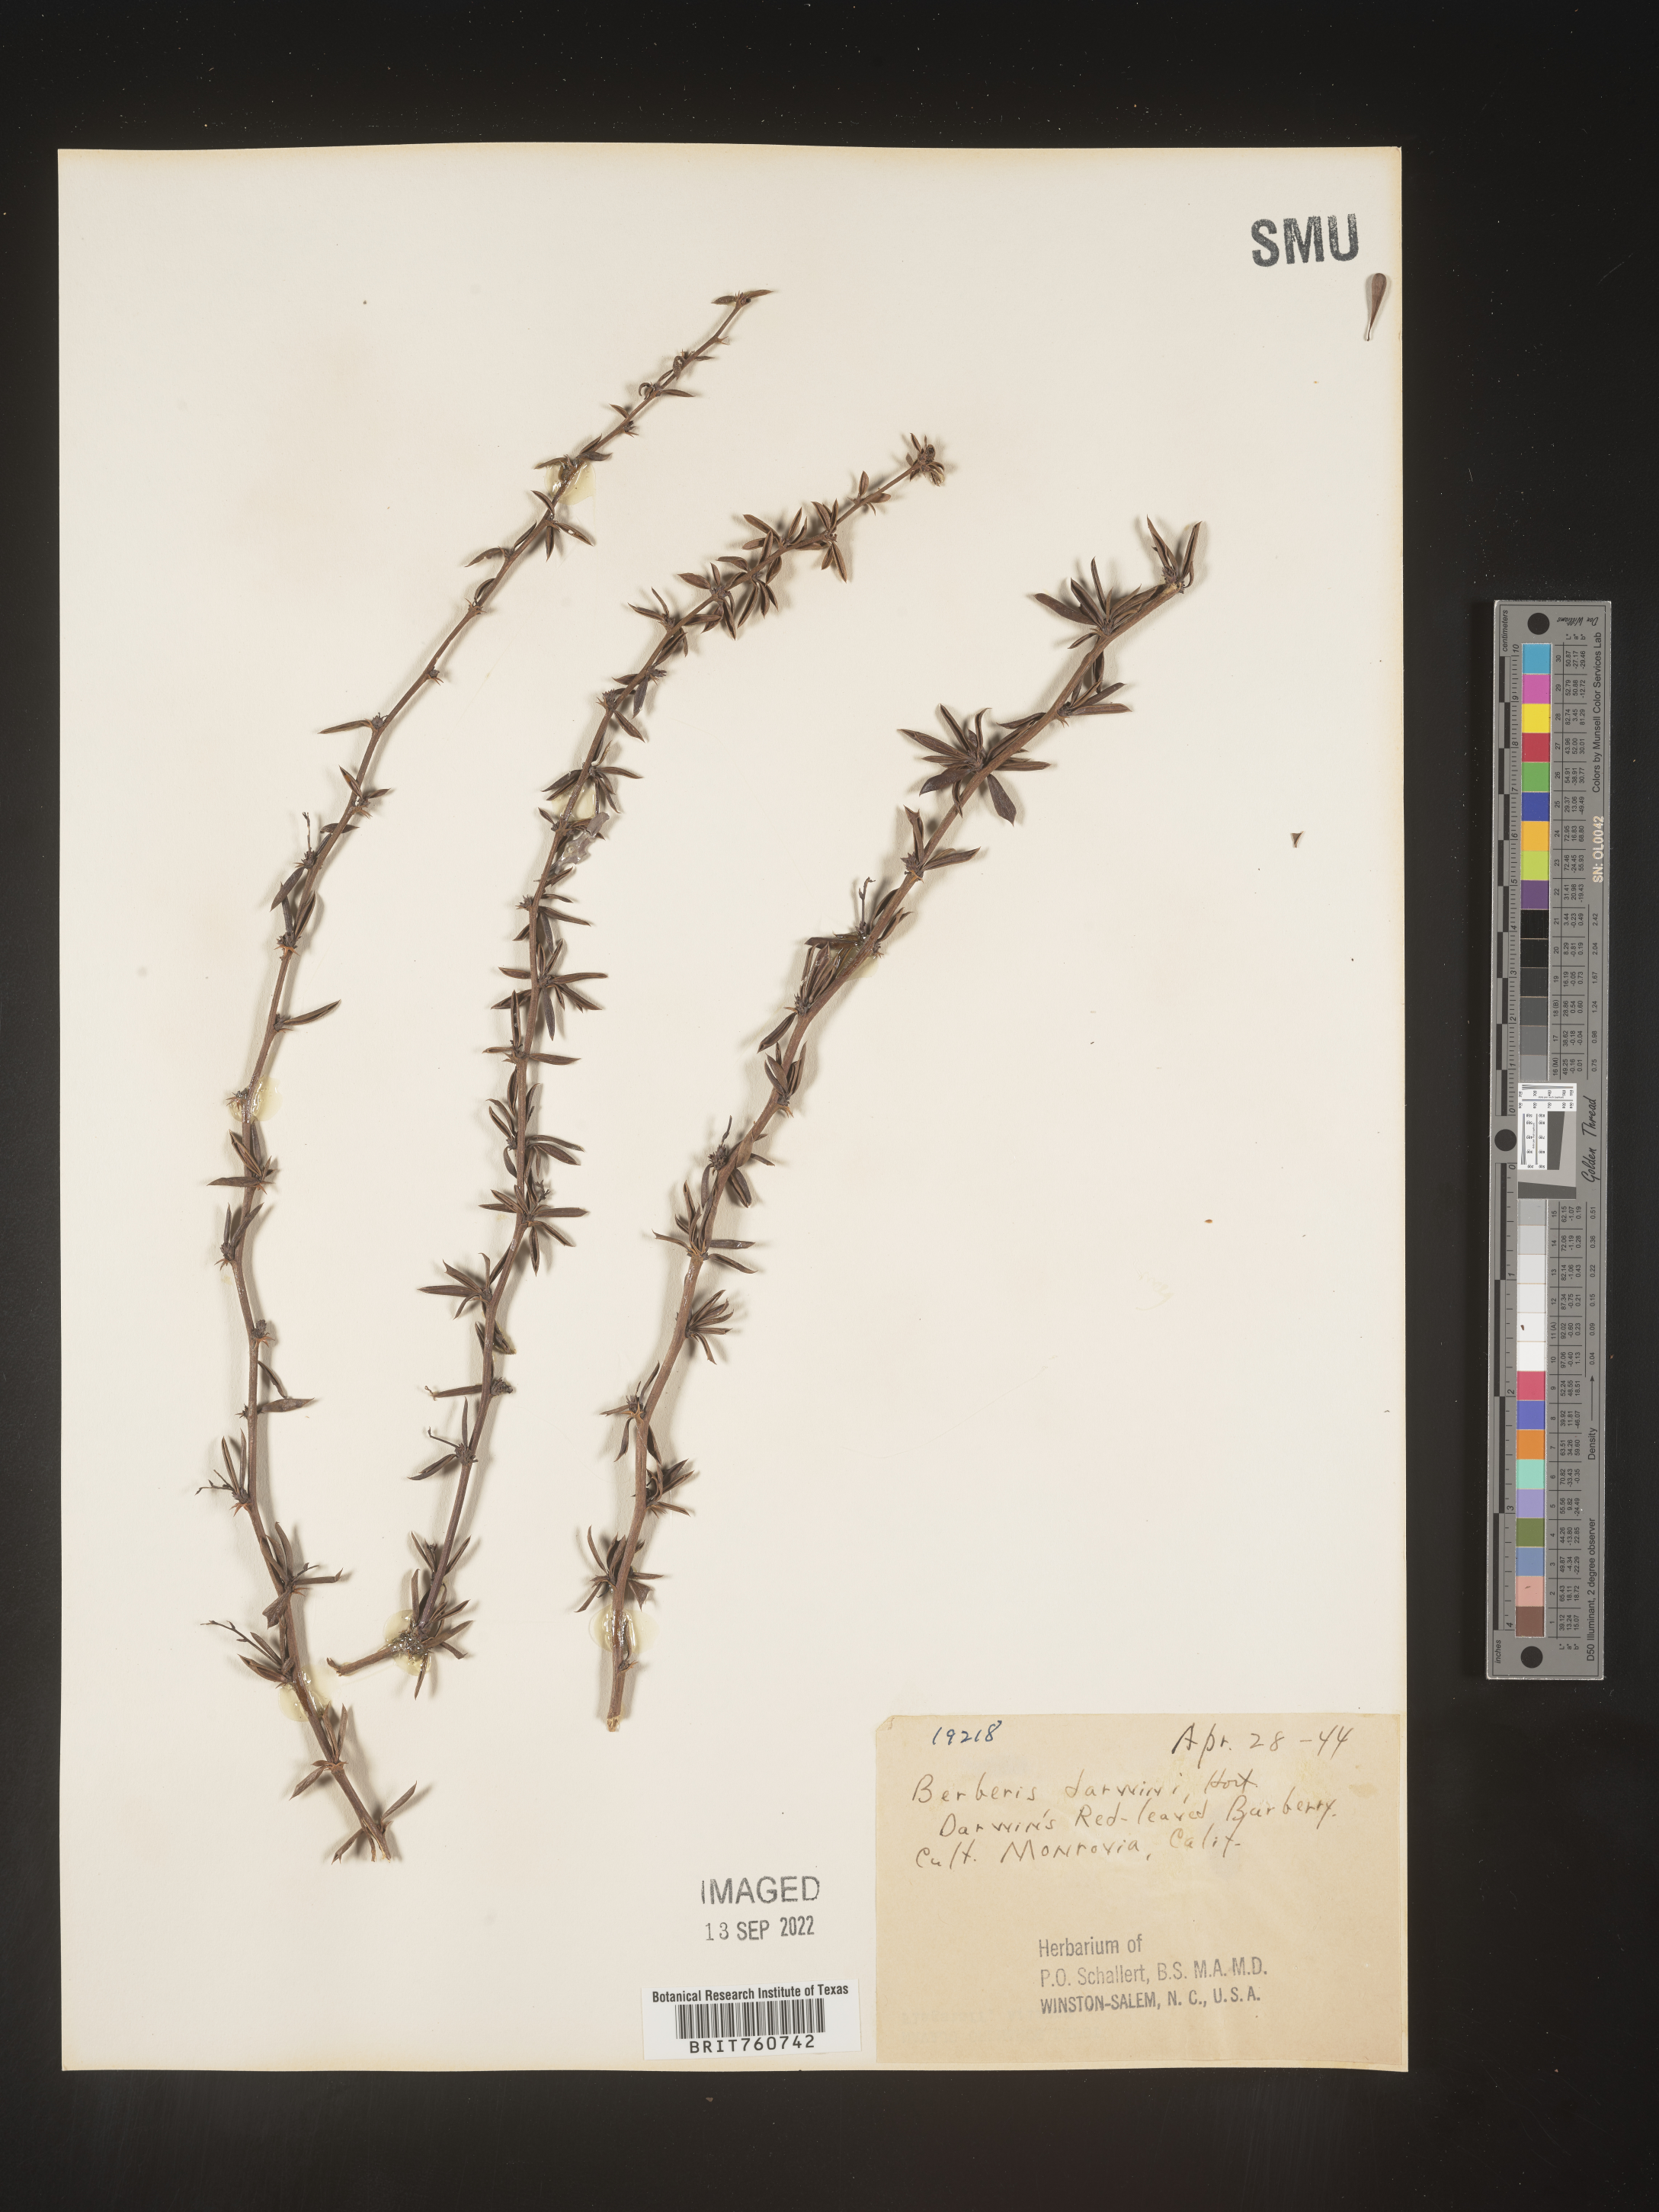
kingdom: Plantae
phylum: Tracheophyta
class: Magnoliopsida
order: Ranunculales
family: Berberidaceae
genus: Berberis
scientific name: Berberis
